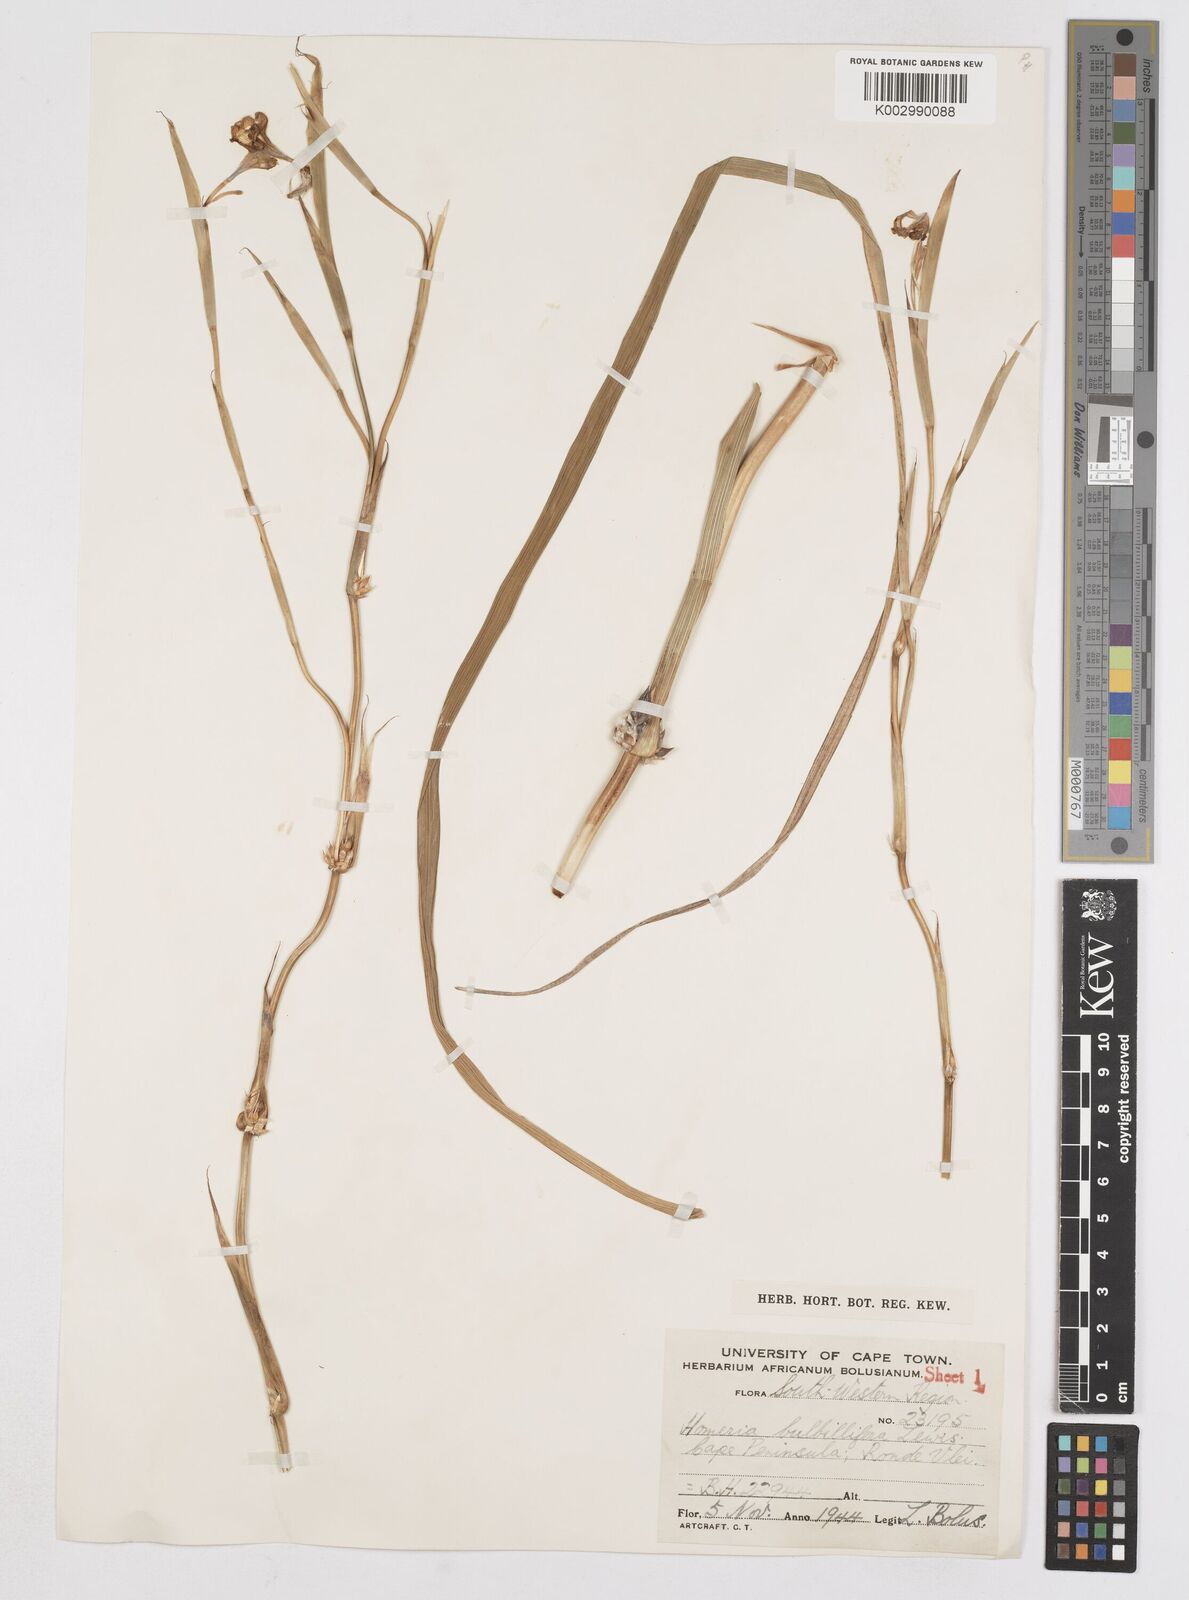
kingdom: Plantae
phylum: Tracheophyta
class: Liliopsida
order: Asparagales
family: Iridaceae
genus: Moraea
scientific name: Moraea bulbillifera
